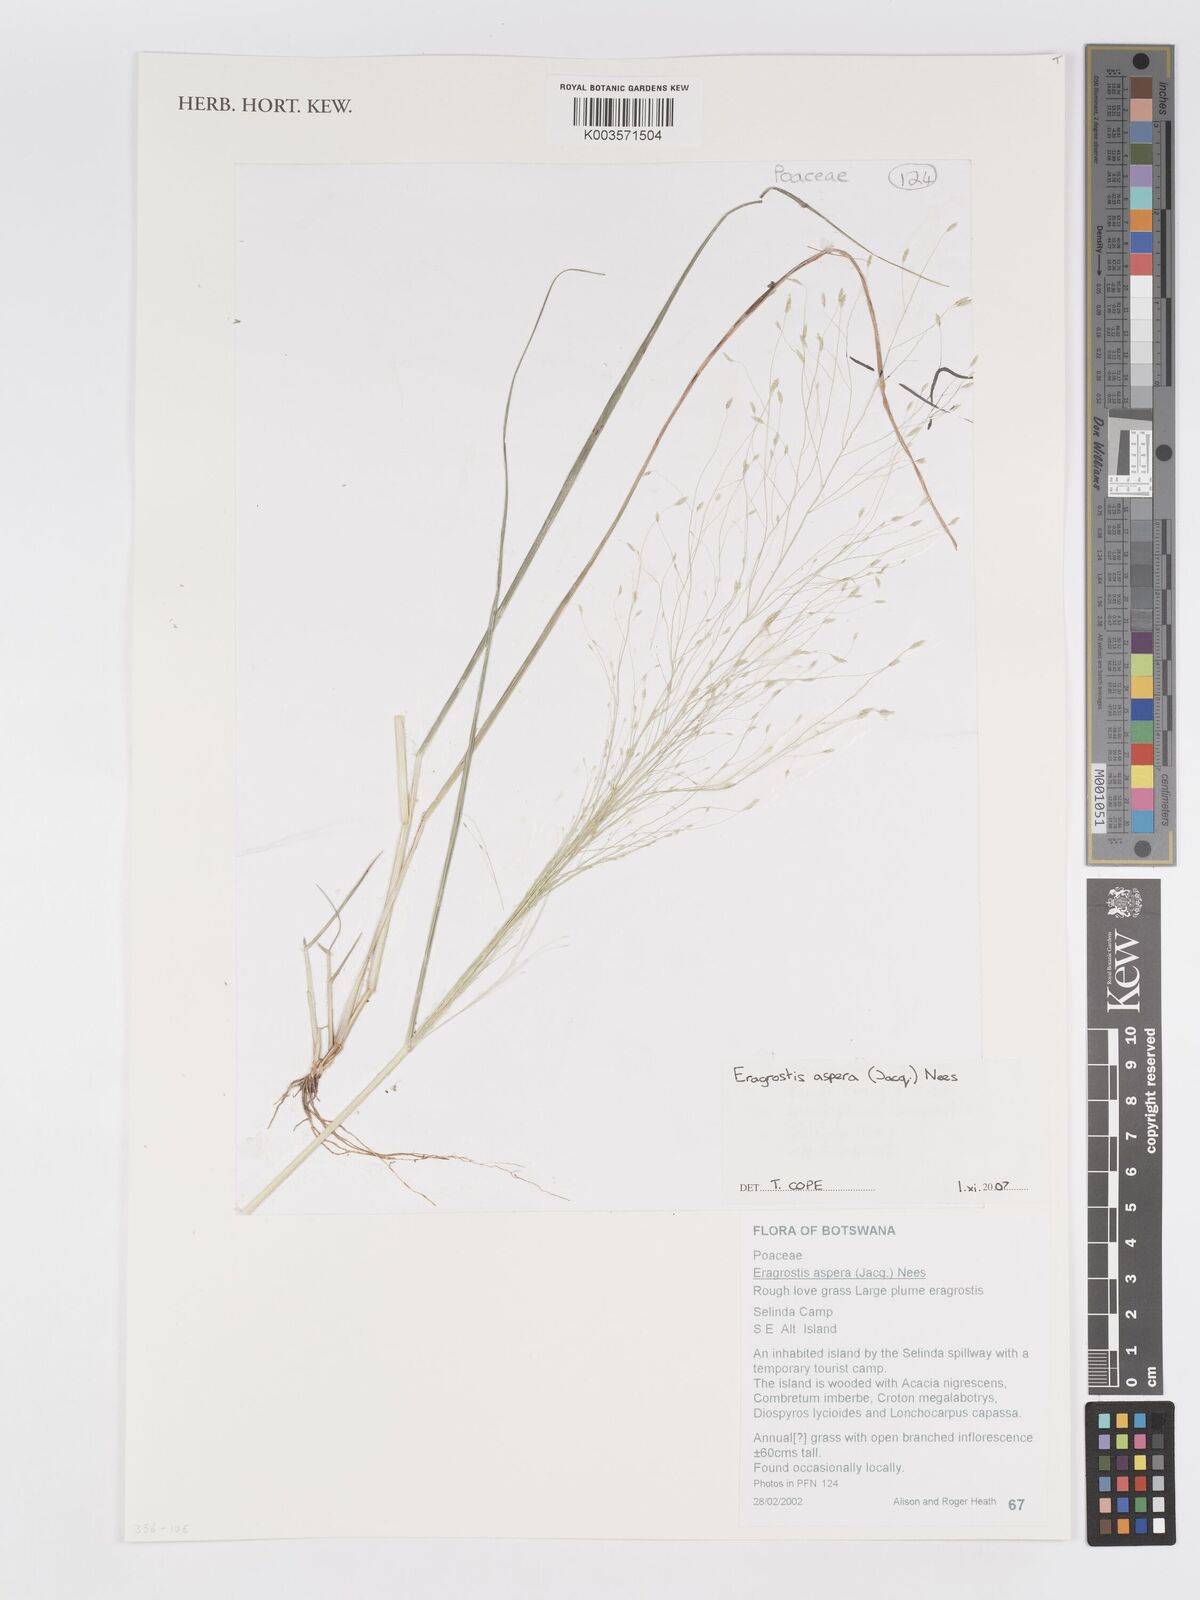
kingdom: Plantae
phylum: Tracheophyta
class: Liliopsida
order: Poales
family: Poaceae
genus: Eragrostis
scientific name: Eragrostis aspera
